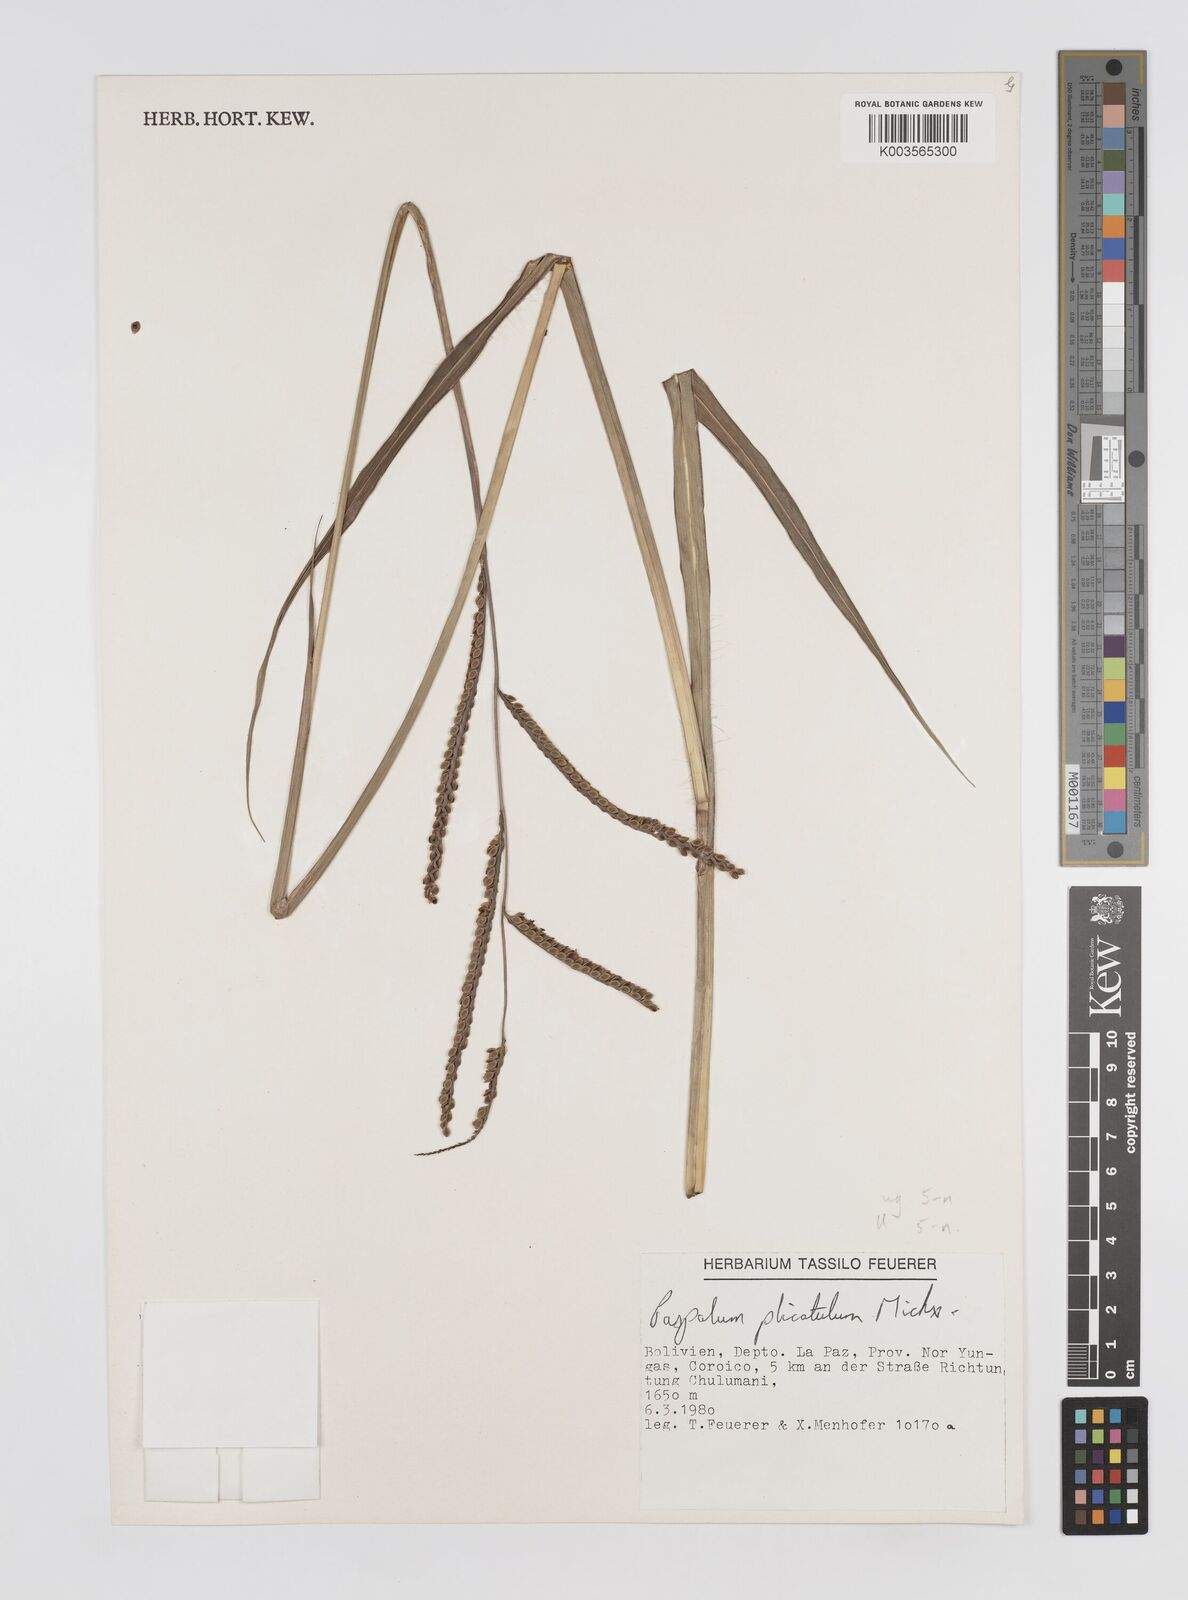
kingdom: Plantae
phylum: Tracheophyta
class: Liliopsida
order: Poales
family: Poaceae
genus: Paspalum
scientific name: Paspalum guenoarum
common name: Wintergreen paspalum
